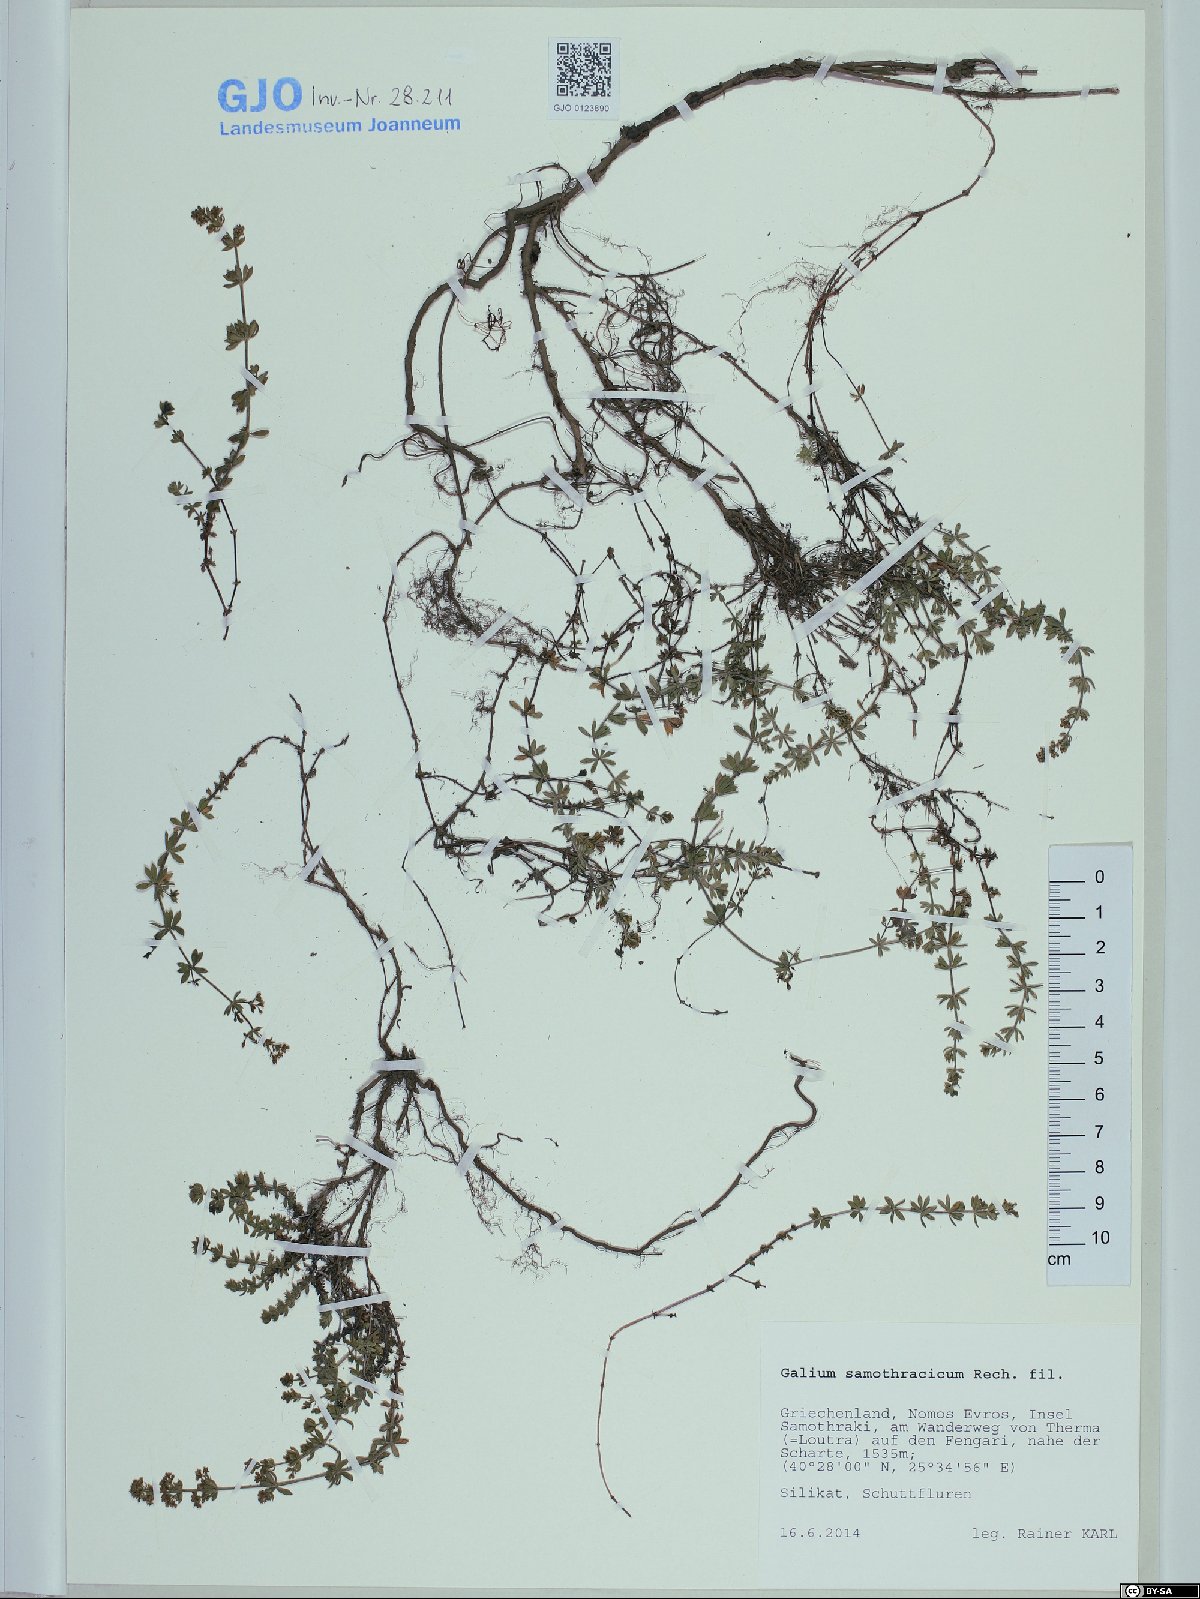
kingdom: Plantae
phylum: Tracheophyta
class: Magnoliopsida
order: Gentianales
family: Rubiaceae
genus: Galium
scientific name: Galium samothracicum
